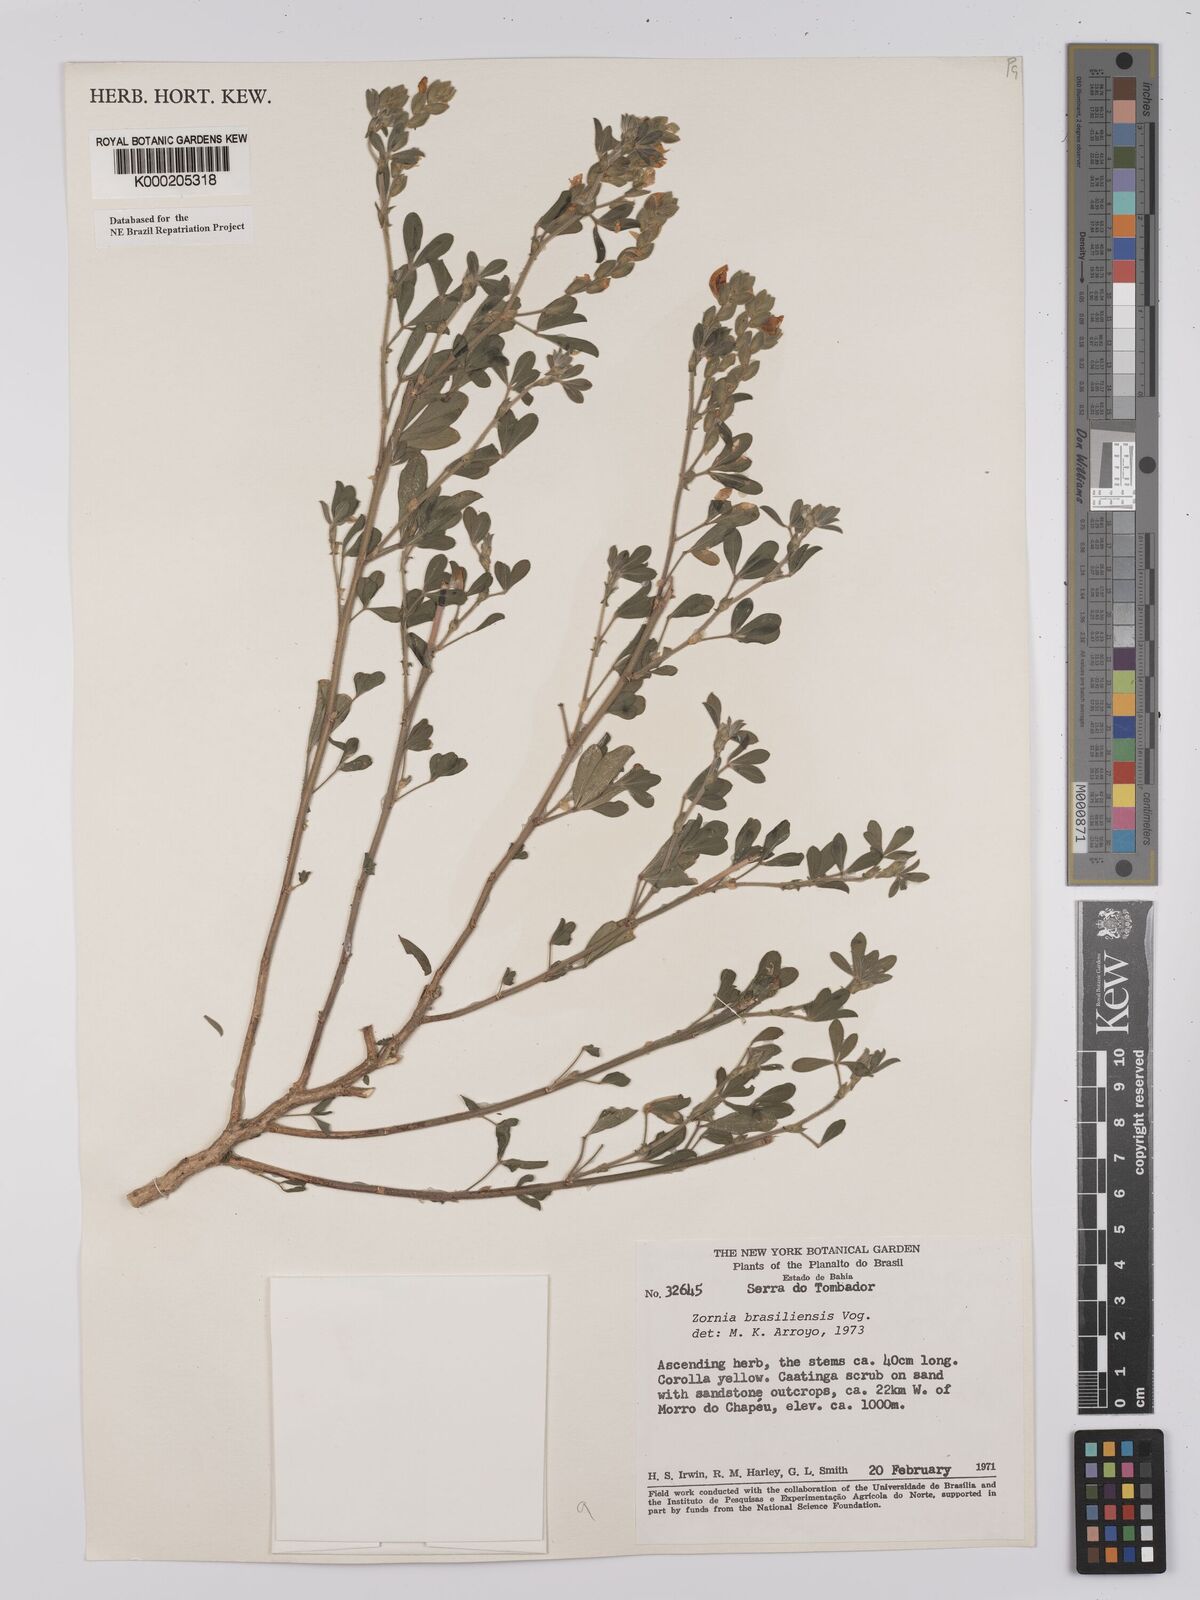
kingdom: Plantae
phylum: Tracheophyta
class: Magnoliopsida
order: Fabales
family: Fabaceae
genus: Zornia
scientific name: Zornia brasiliensis
